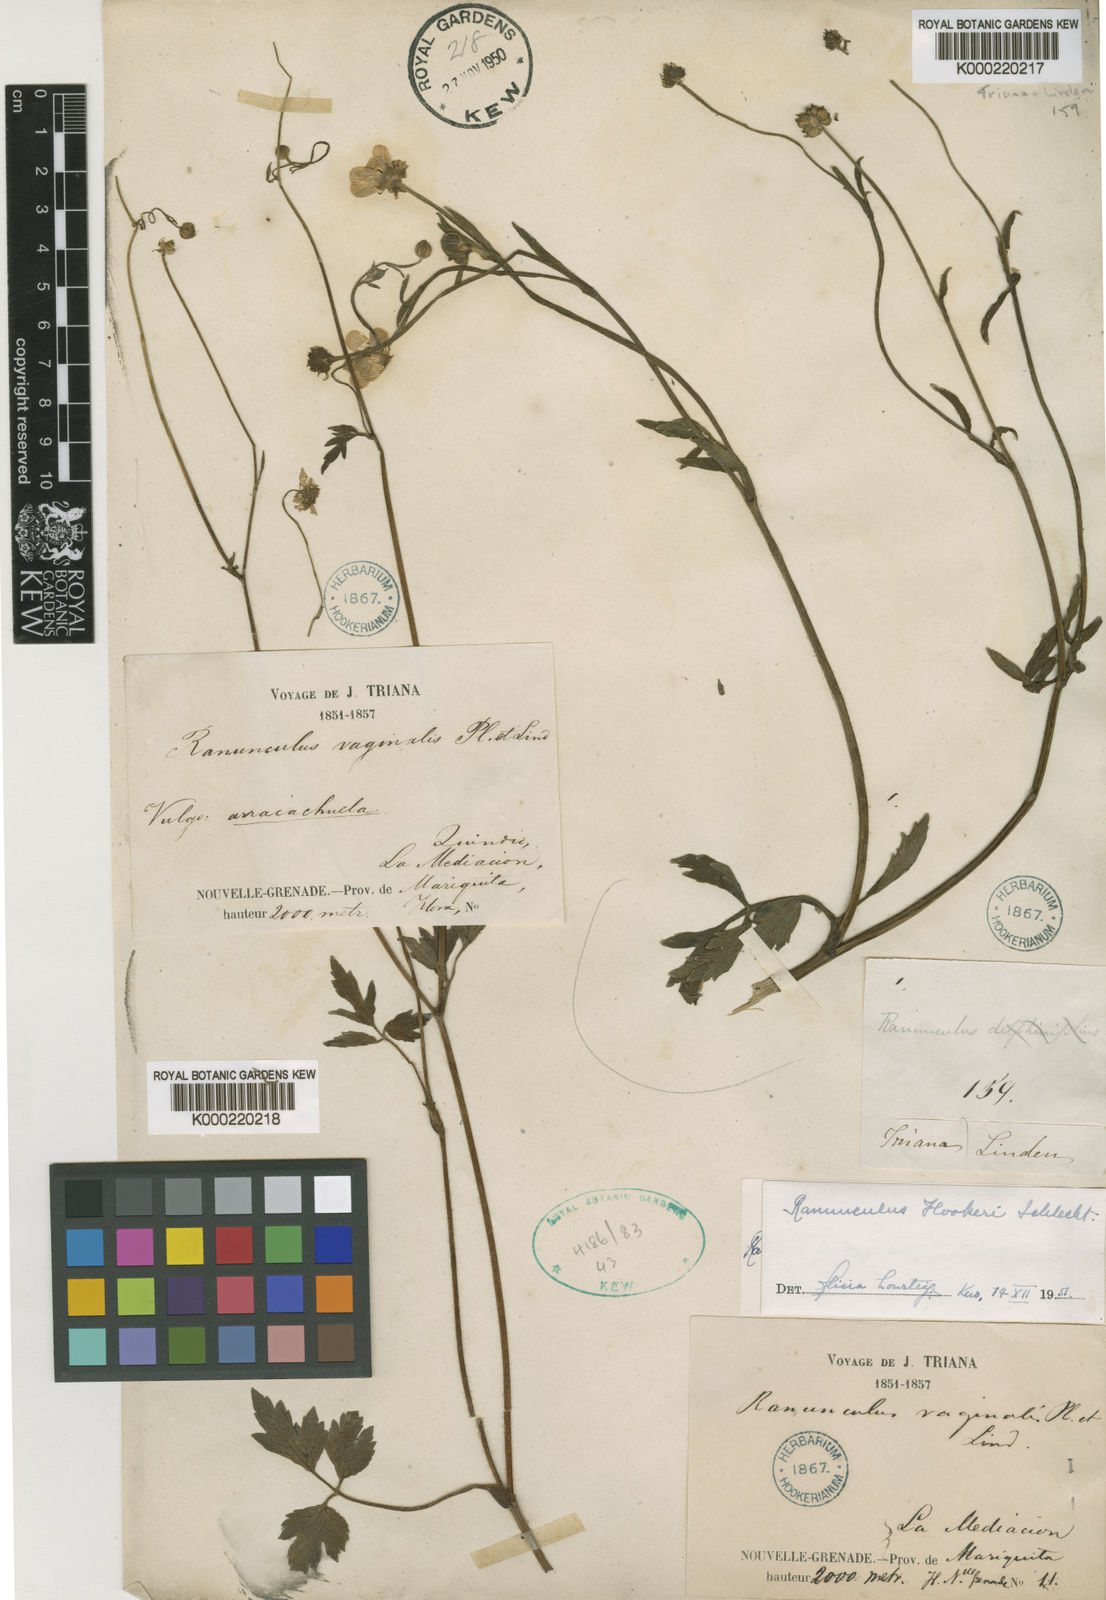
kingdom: Plantae
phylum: Tracheophyta
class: Magnoliopsida
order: Ranunculales
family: Ranunculaceae
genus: Ranunculus
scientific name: Ranunculus
